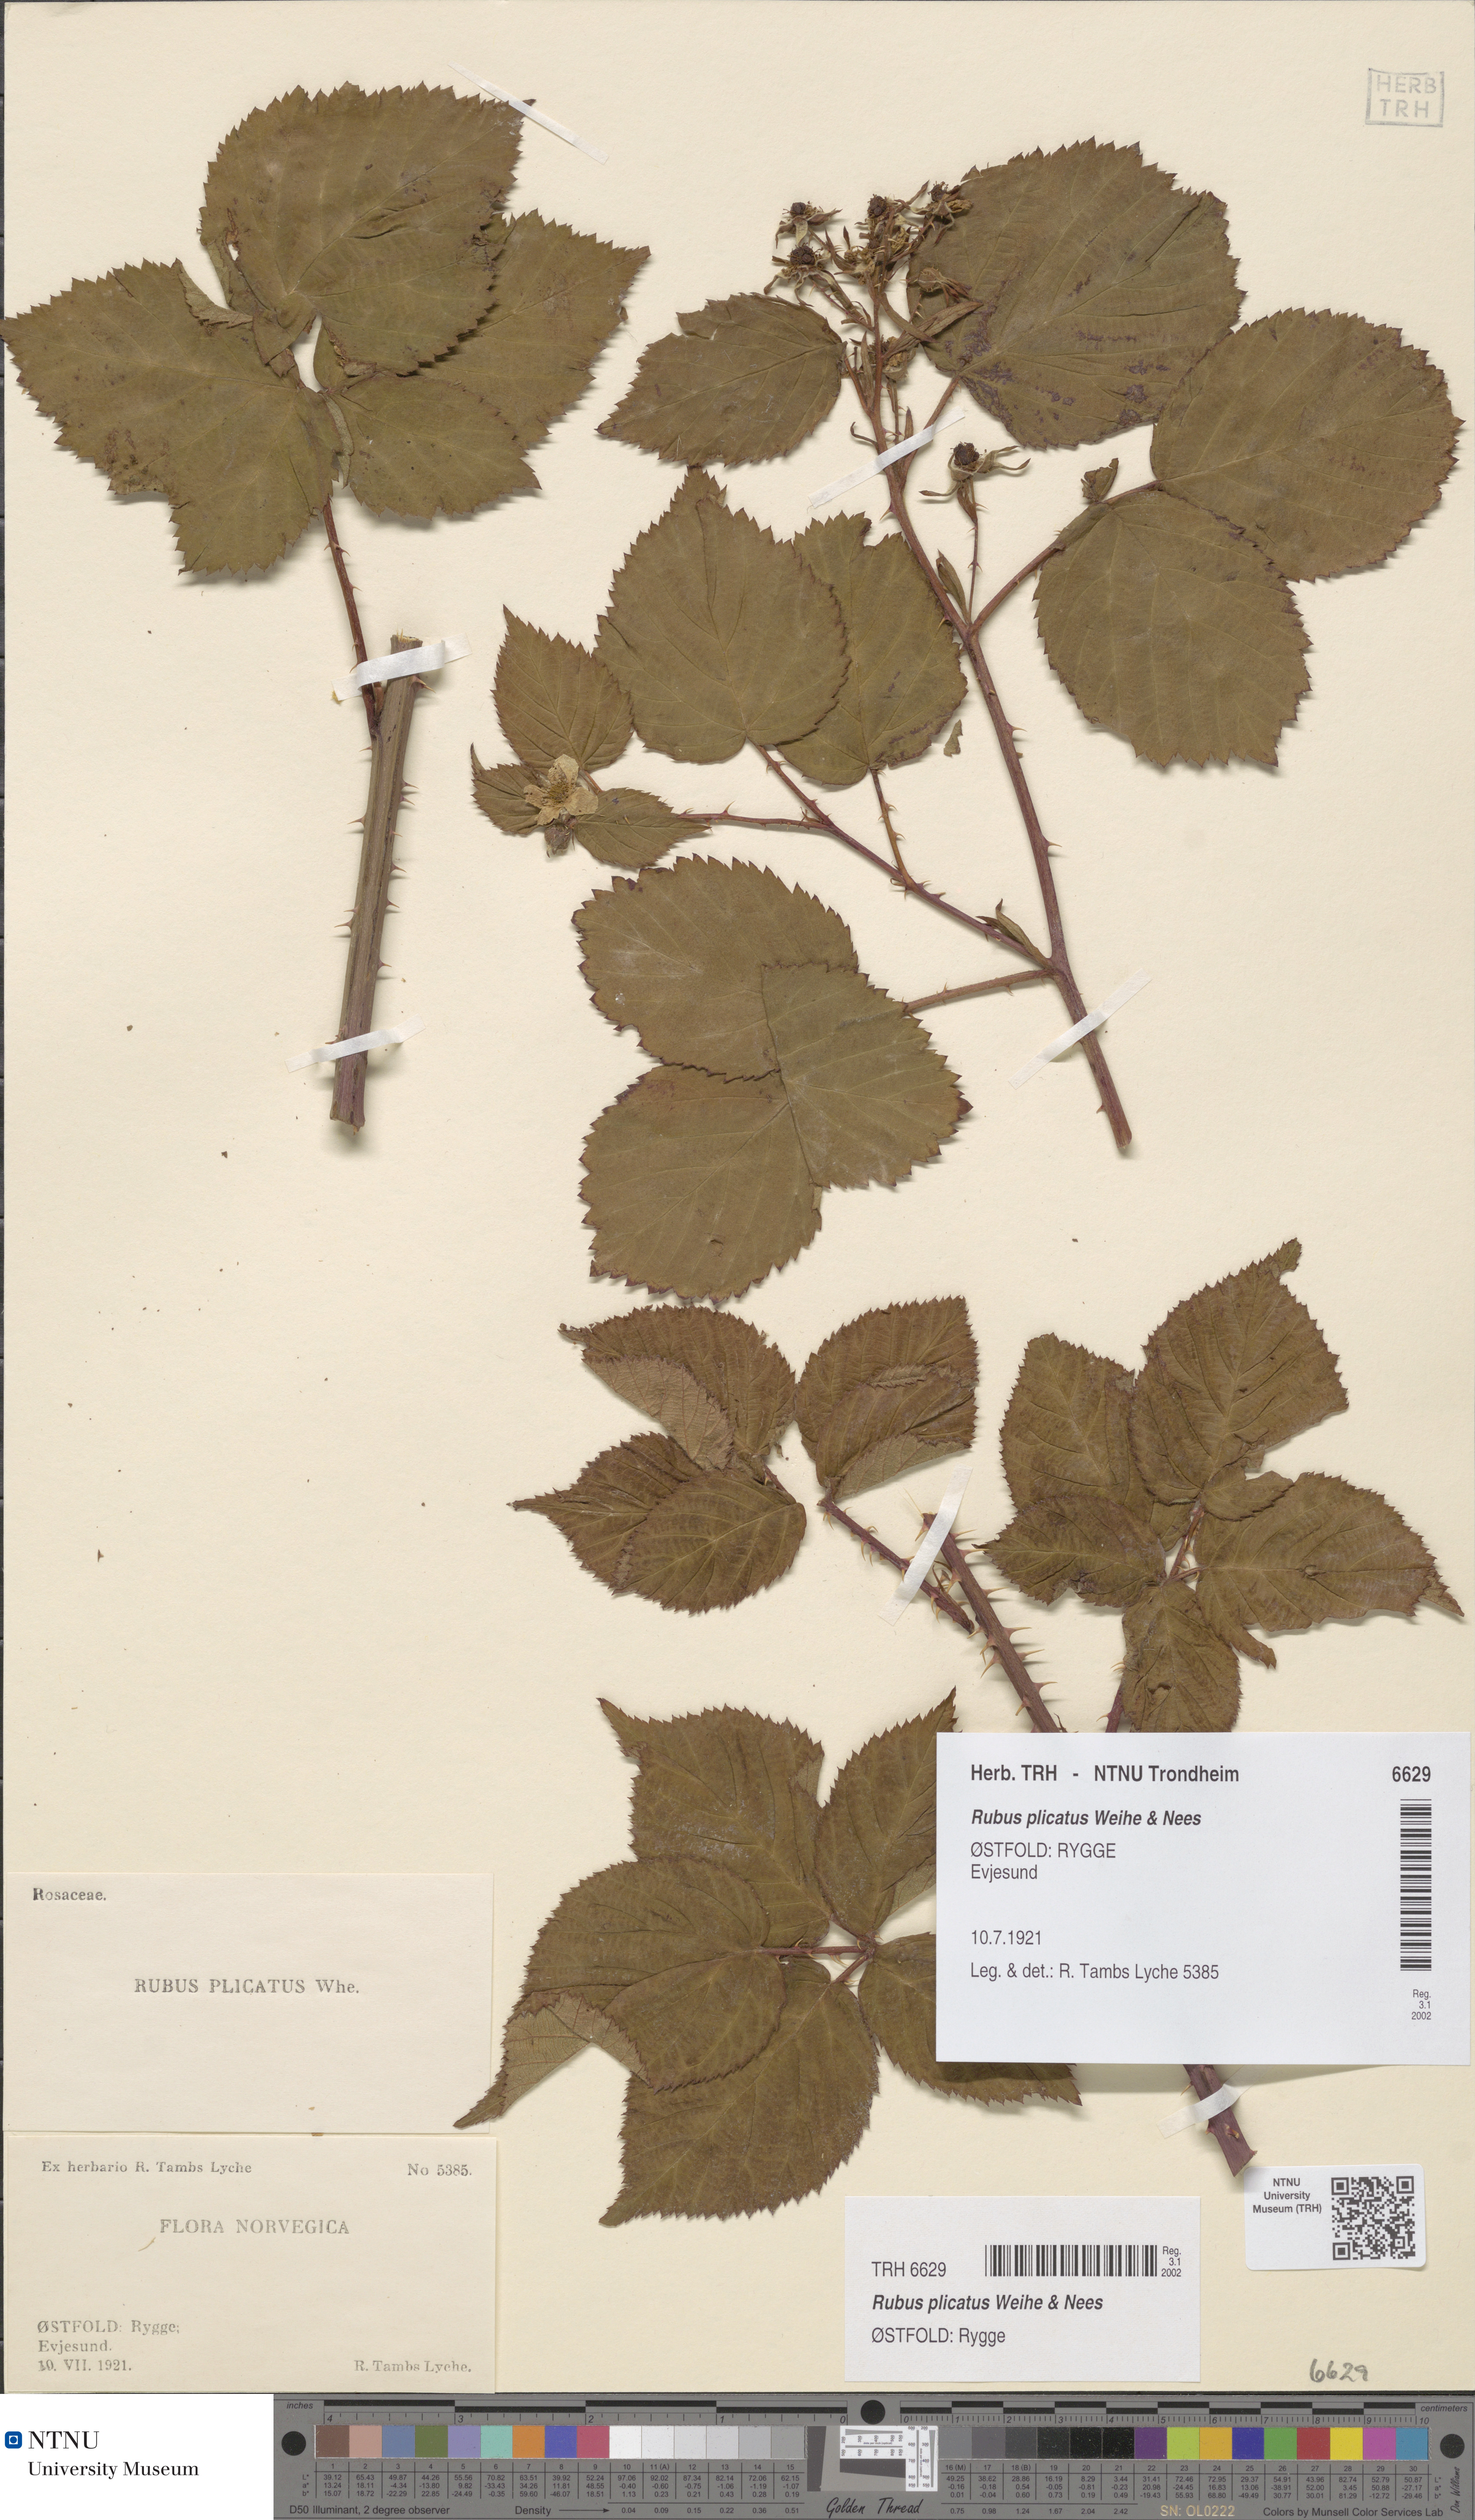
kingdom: Plantae
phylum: Tracheophyta
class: Magnoliopsida
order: Rosales
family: Rosaceae
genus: Rubus
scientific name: Rubus fruticosus
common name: Blackberry, bramble
